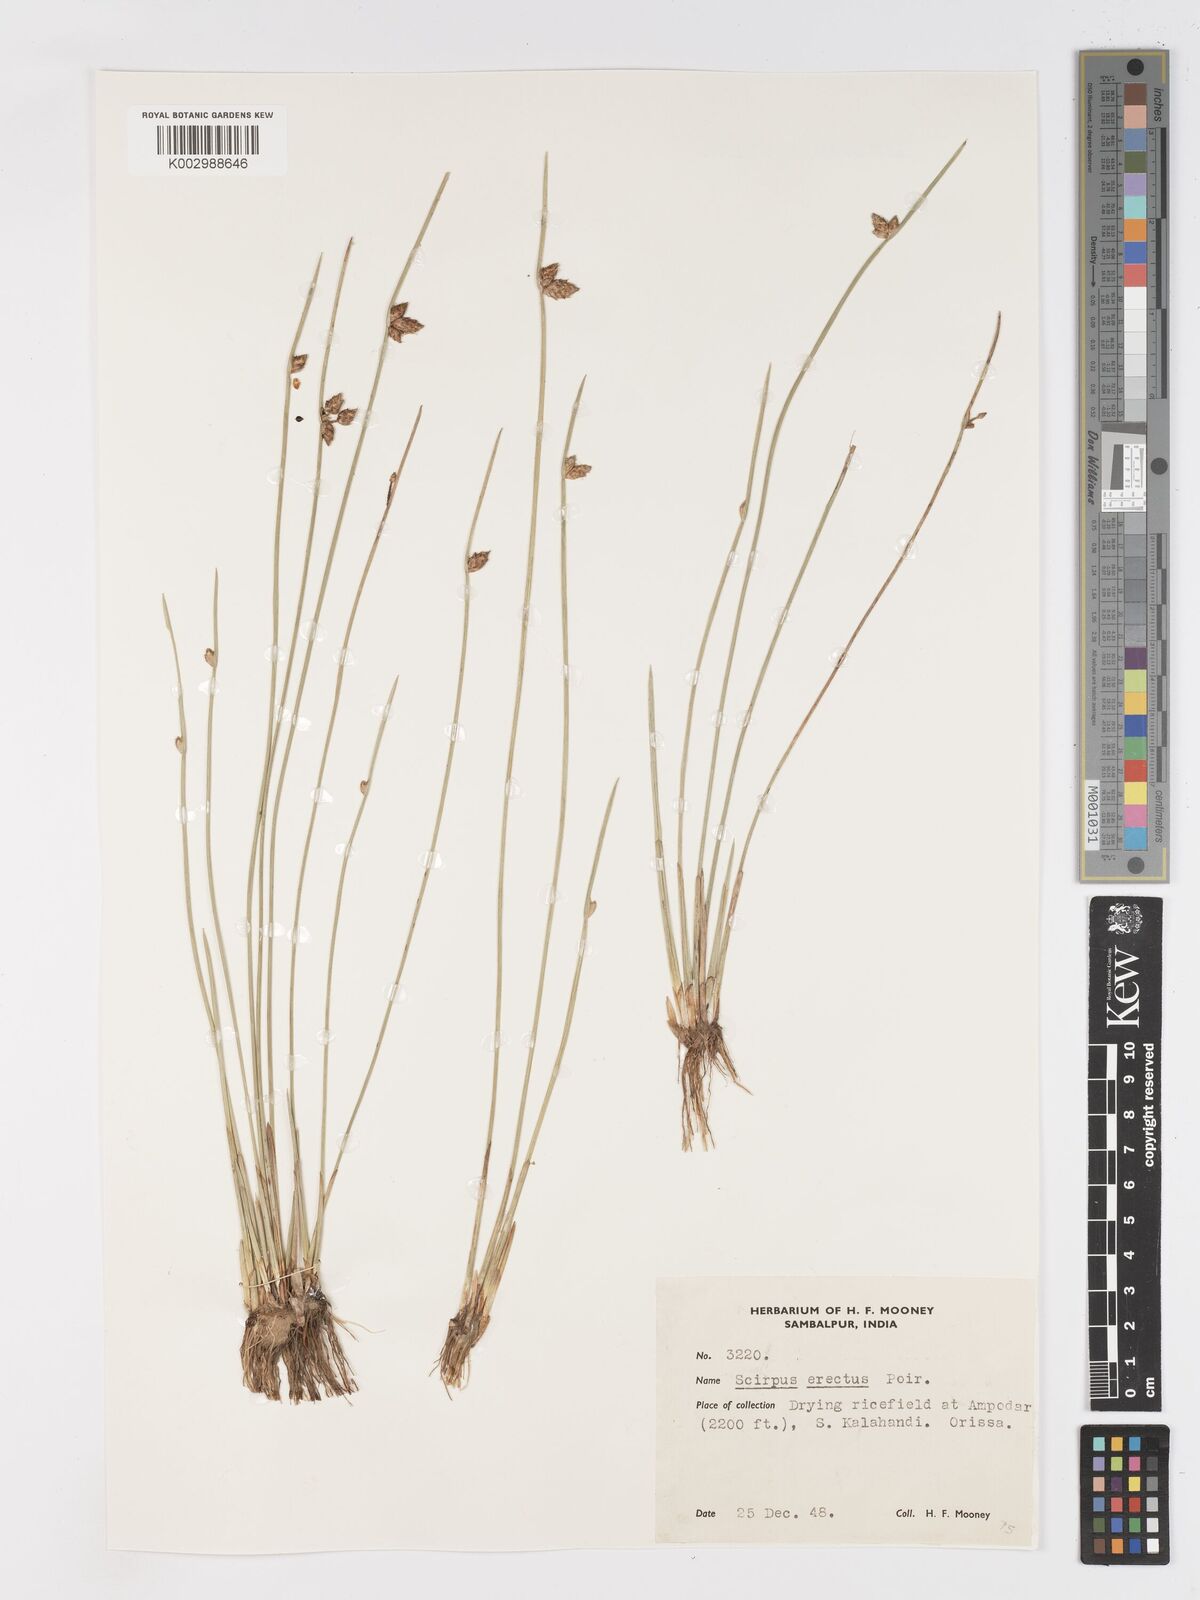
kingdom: Plantae
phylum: Tracheophyta
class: Liliopsida
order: Poales
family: Cyperaceae
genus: Schoenoplectiella
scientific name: Schoenoplectiella juncoides
